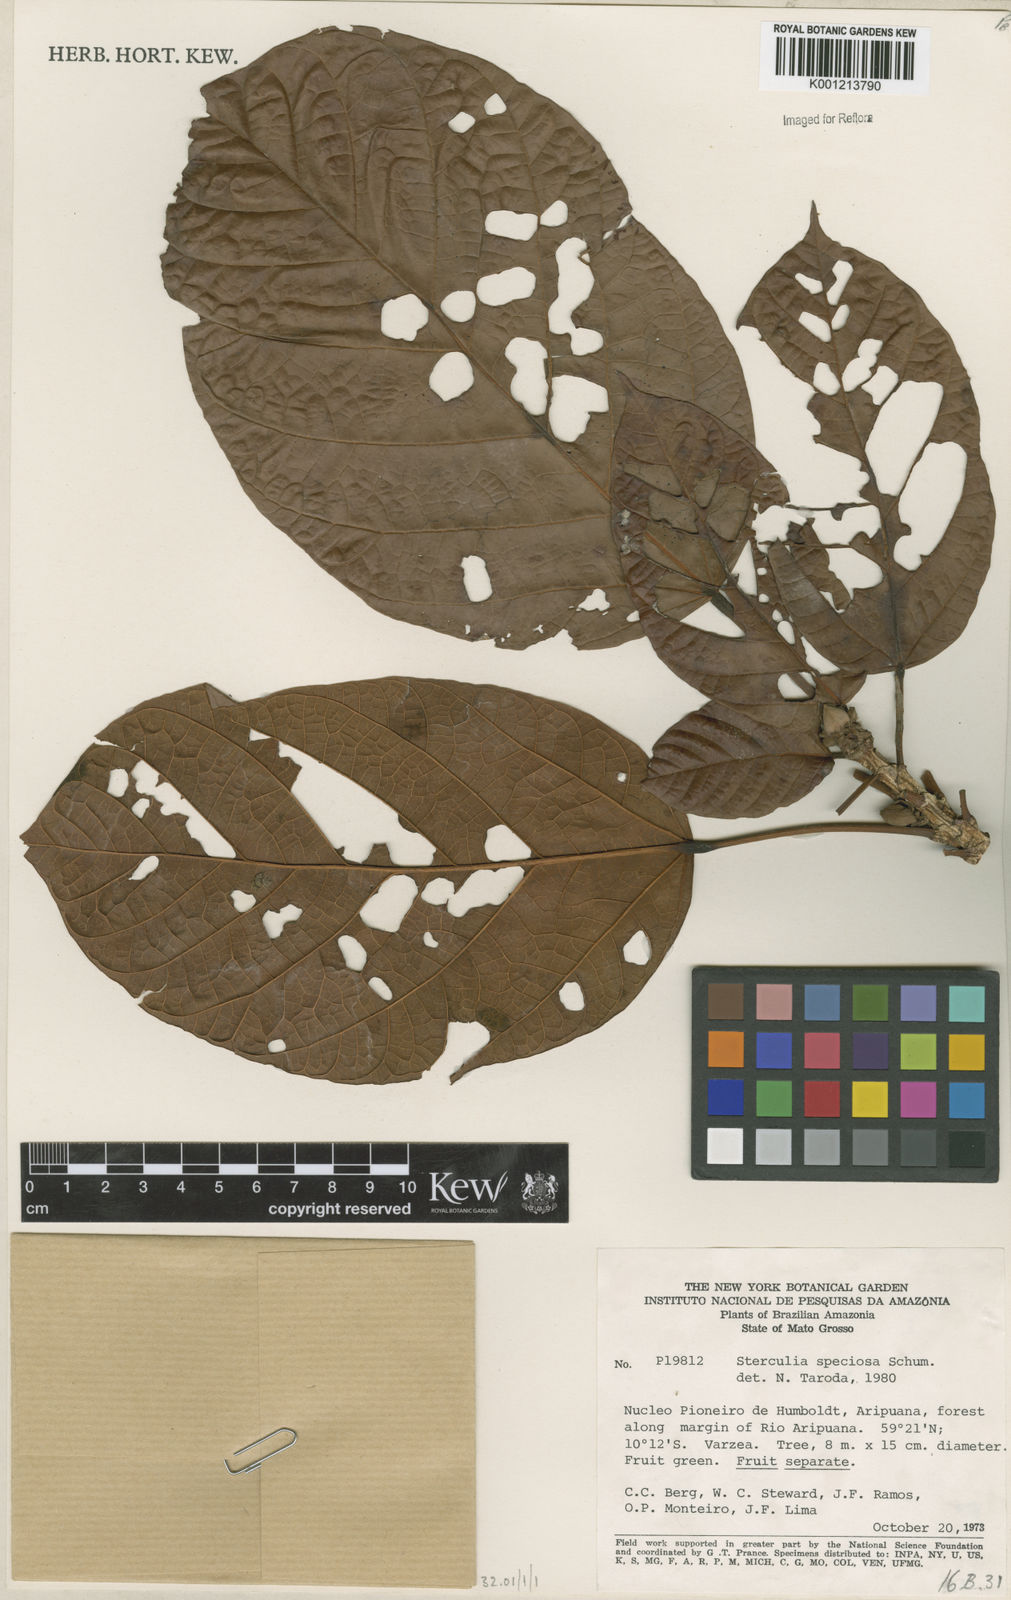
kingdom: Plantae
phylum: Tracheophyta
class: Magnoliopsida
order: Malvales
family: Malvaceae
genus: Sterculia
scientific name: Sterculia speciosa
